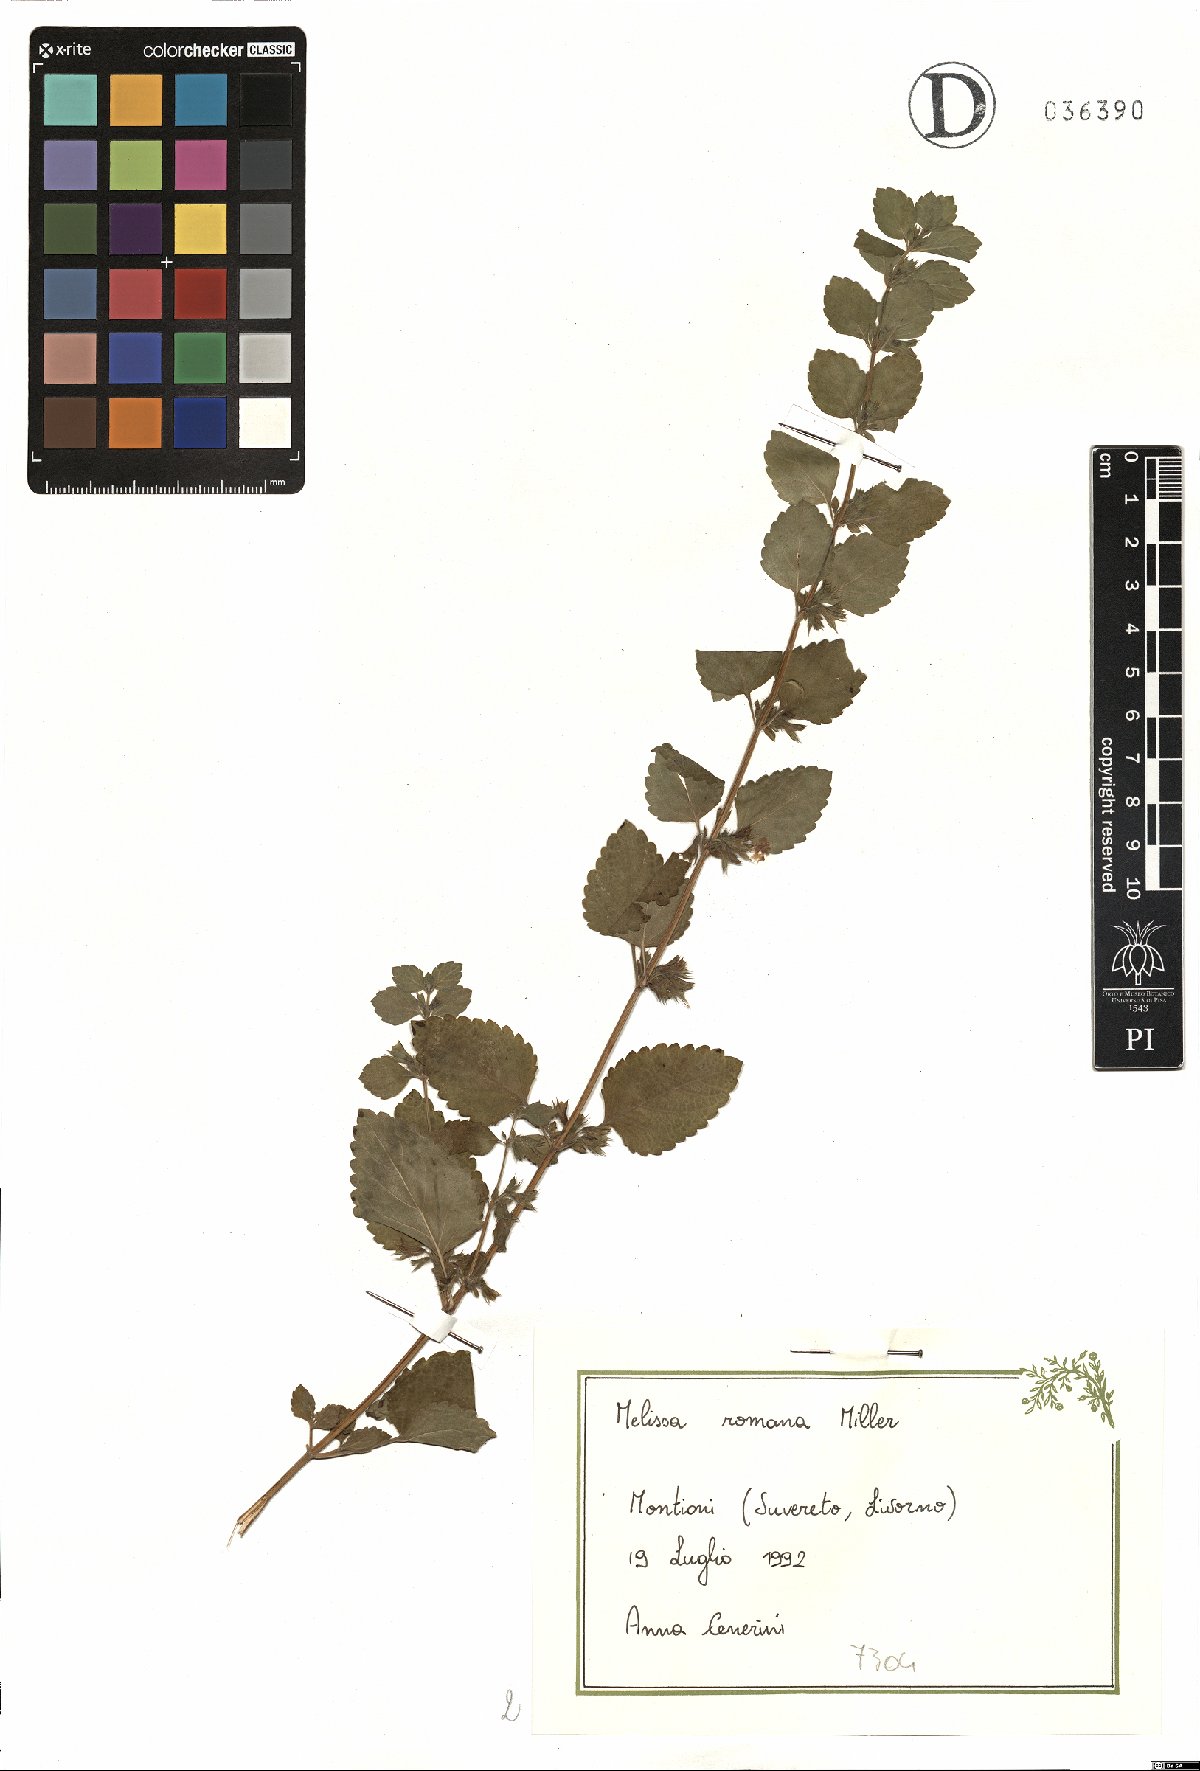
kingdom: Plantae
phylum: Tracheophyta
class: Magnoliopsida
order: Lamiales
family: Lamiaceae
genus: Melissa
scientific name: Melissa officinalis
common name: Balm
